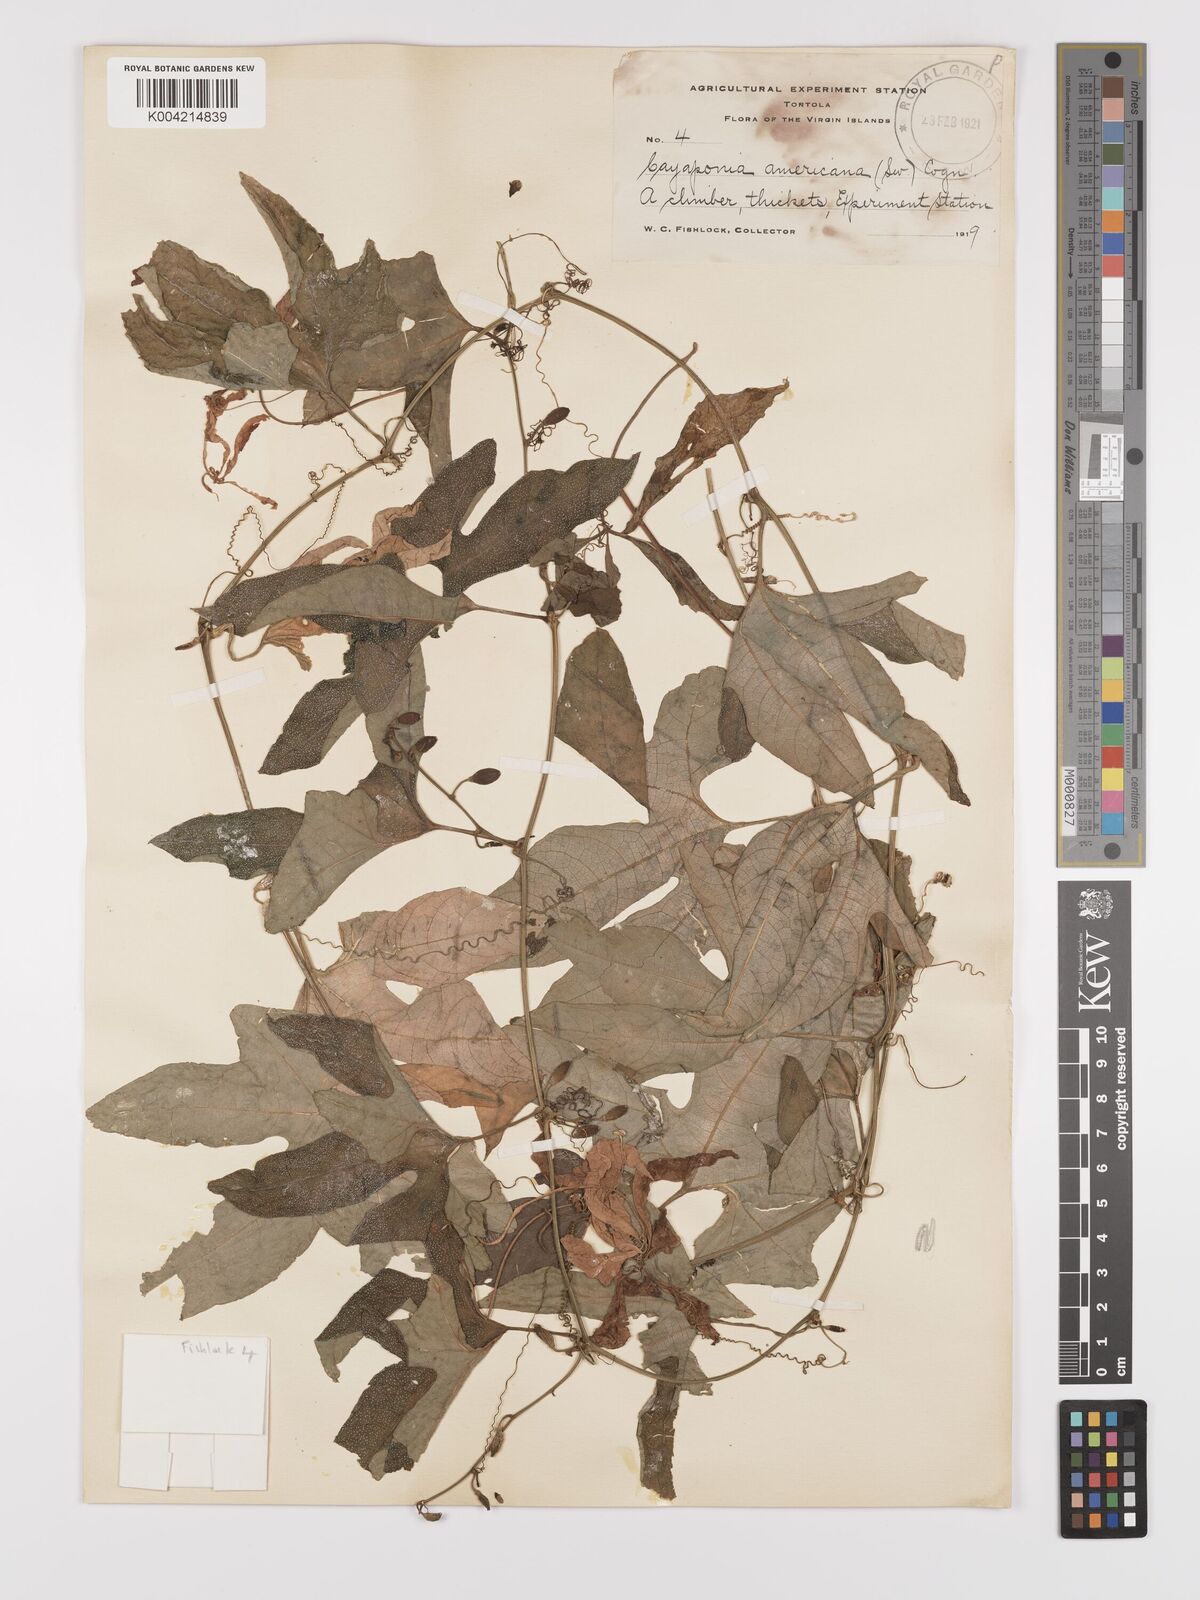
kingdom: Plantae
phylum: Tracheophyta
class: Magnoliopsida
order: Cucurbitales
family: Cucurbitaceae
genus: Cayaponia
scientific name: Cayaponia americana
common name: American melonleaf
